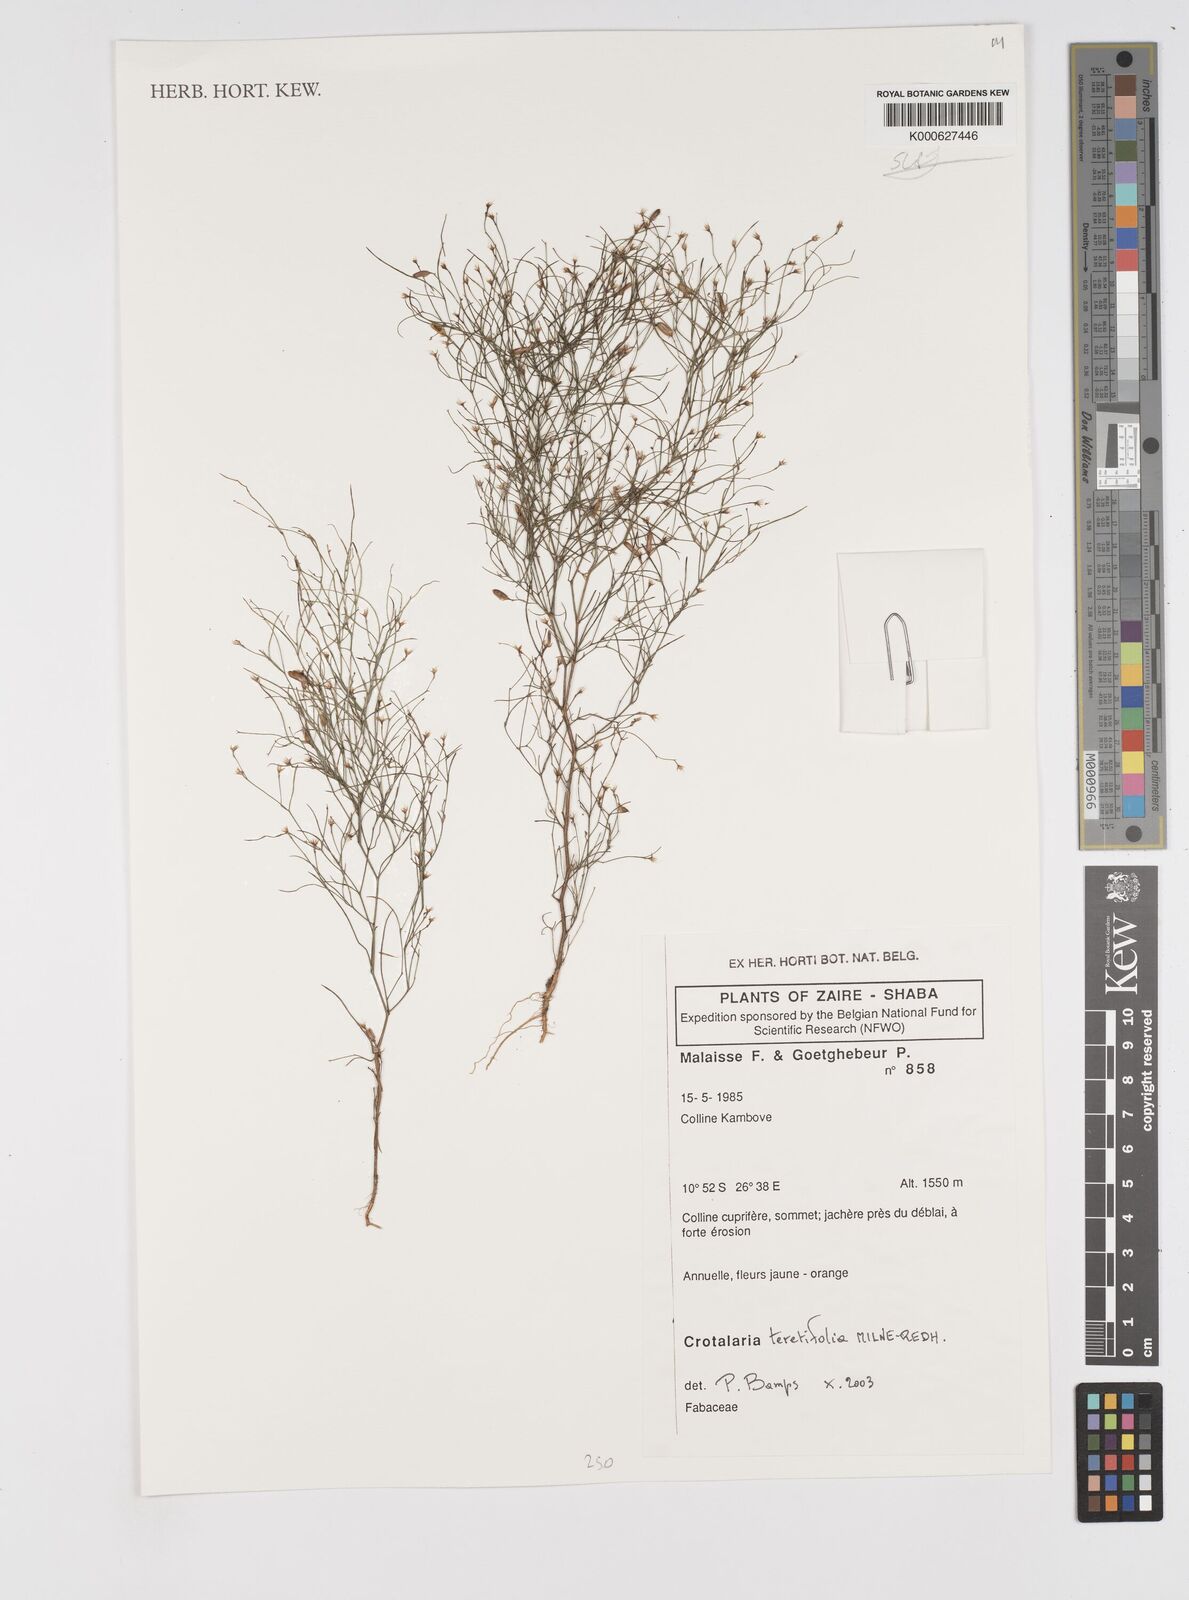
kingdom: Plantae
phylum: Tracheophyta
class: Magnoliopsida
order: Fabales
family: Fabaceae
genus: Crotalaria
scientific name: Crotalaria teretifolia
